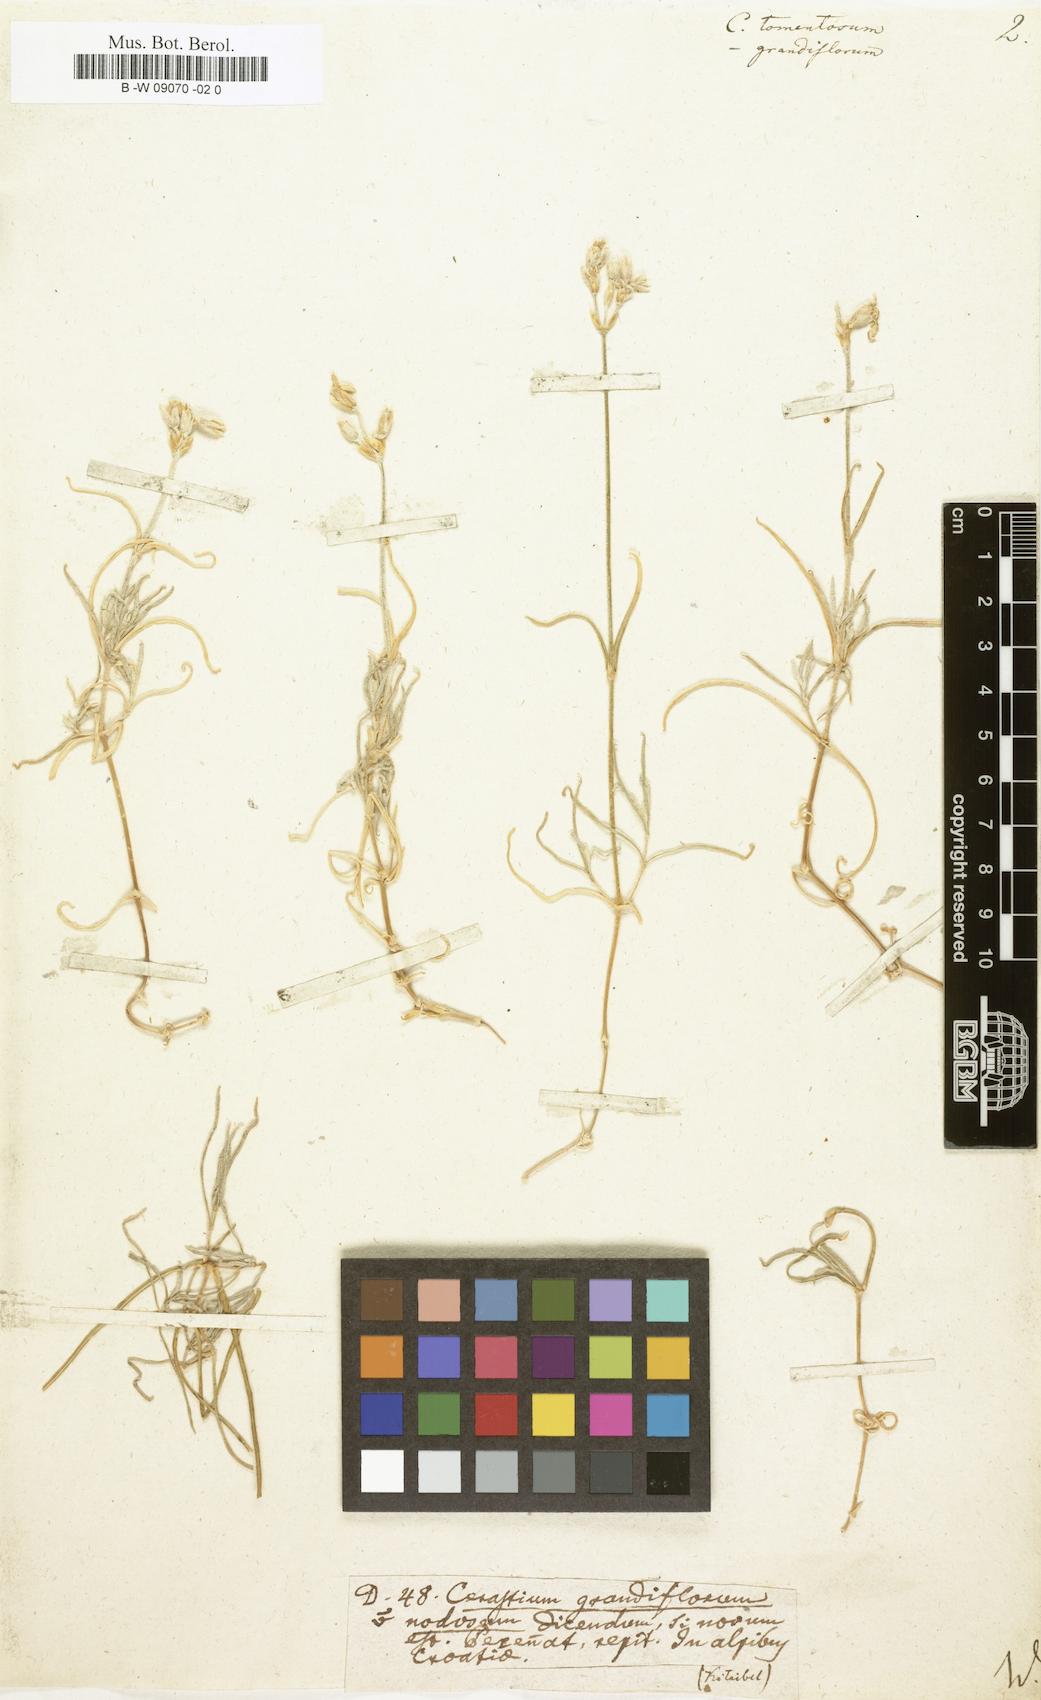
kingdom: Plantae
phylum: Tracheophyta
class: Magnoliopsida
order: Caryophyllales
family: Caryophyllaceae
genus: Cerastium
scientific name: Cerastium tomentosum
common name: Snow-in-summer
